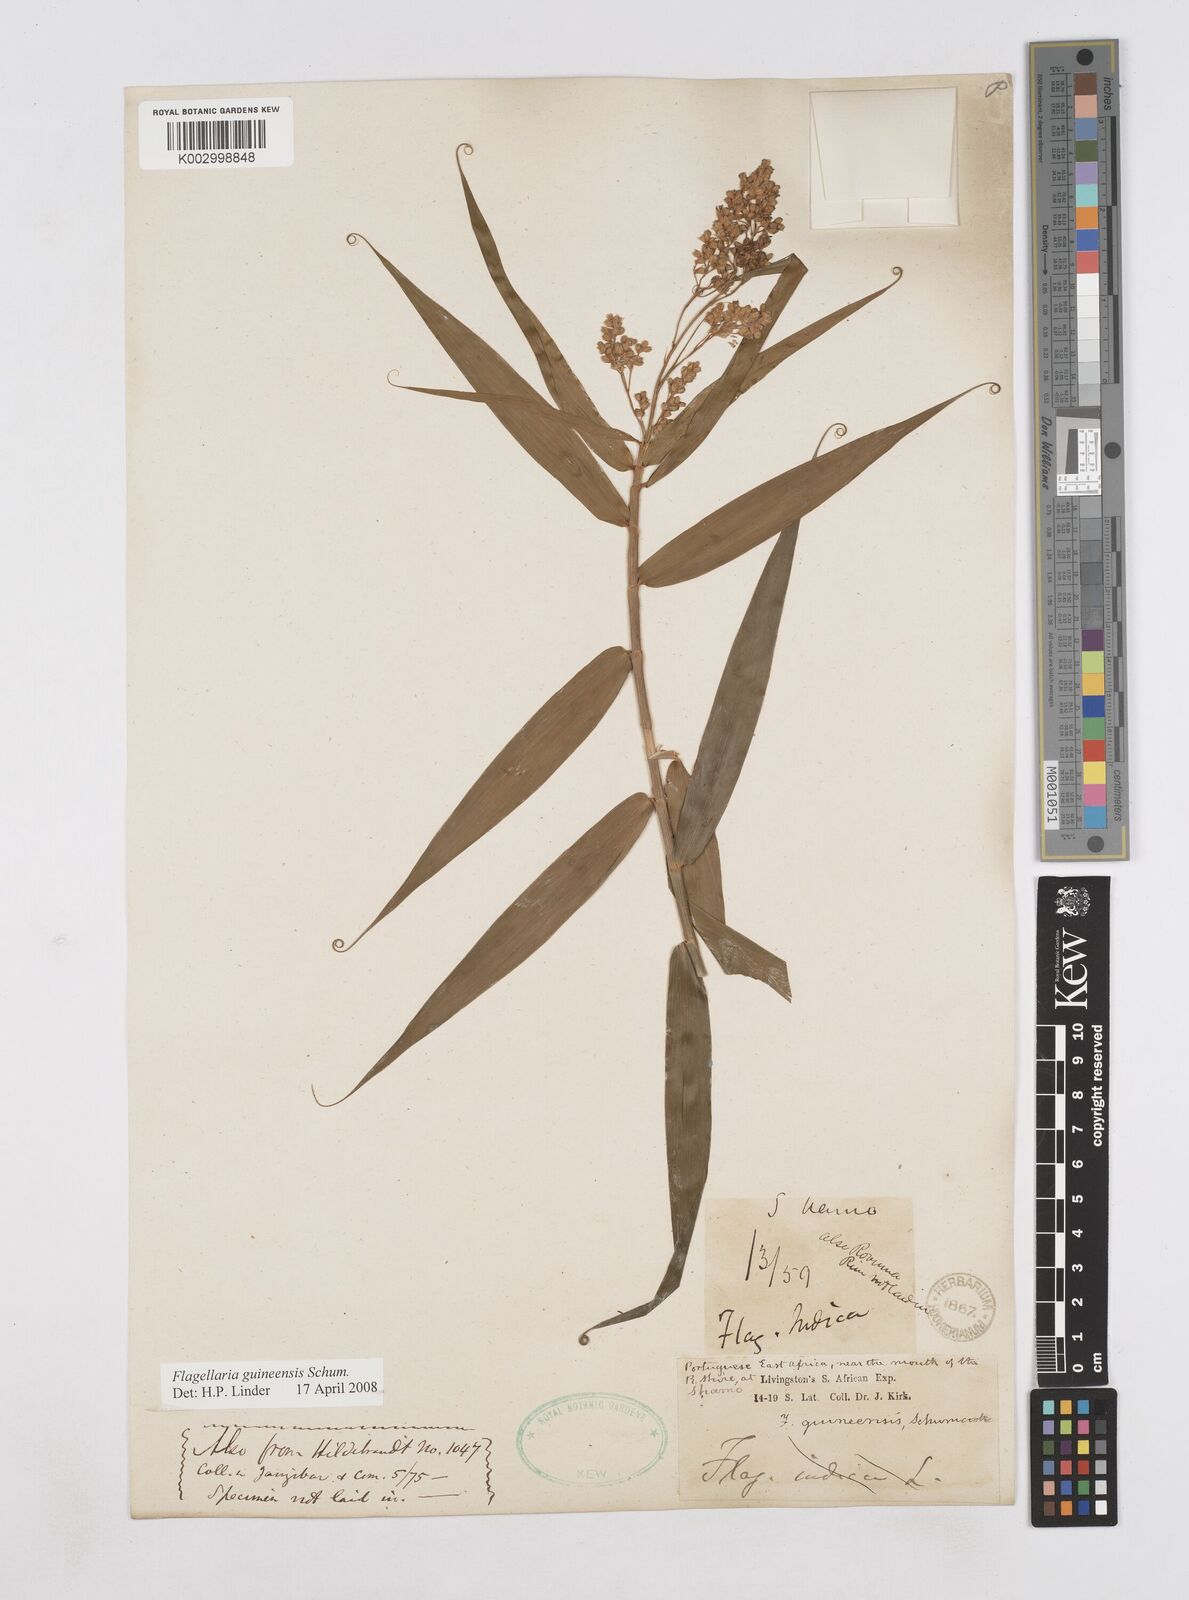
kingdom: Plantae
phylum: Tracheophyta
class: Liliopsida
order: Poales
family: Flagellariaceae
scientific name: Flagellariaceae
